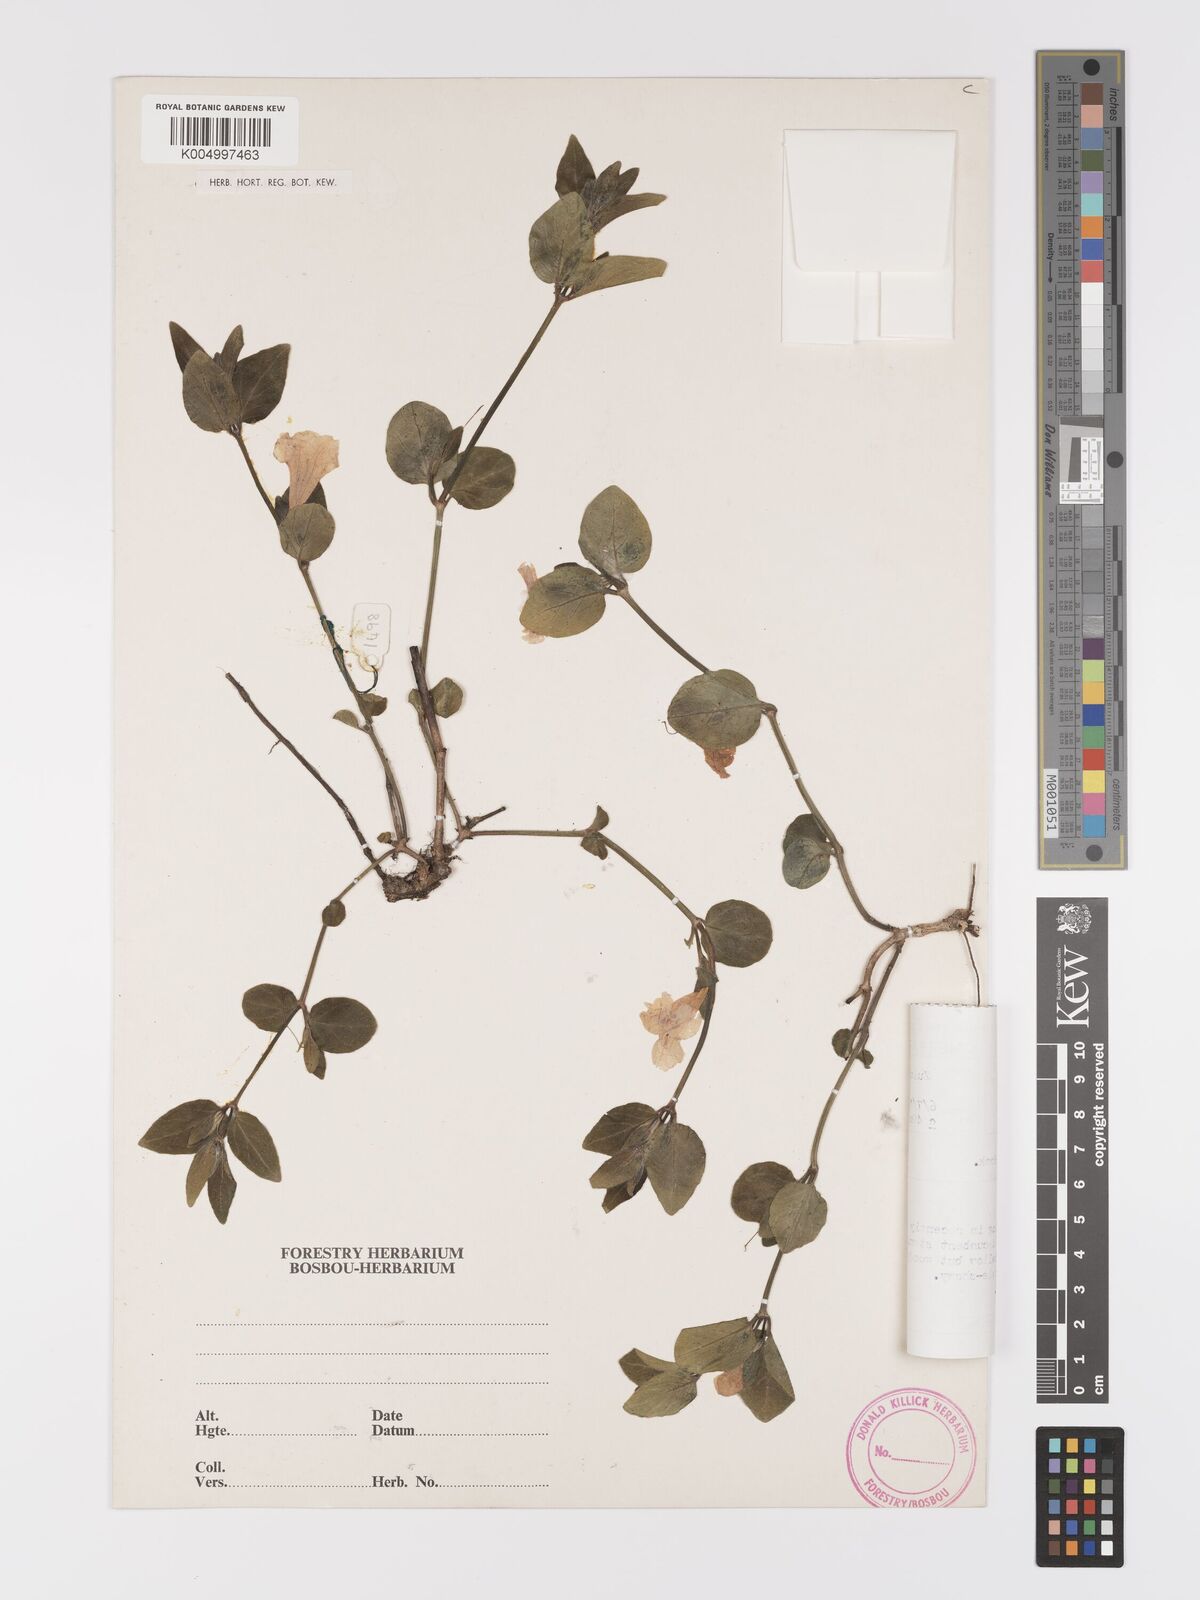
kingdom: Plantae
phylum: Tracheophyta
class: Magnoliopsida
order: Lamiales
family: Acanthaceae
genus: Ruellia
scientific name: Ruellia cordata
